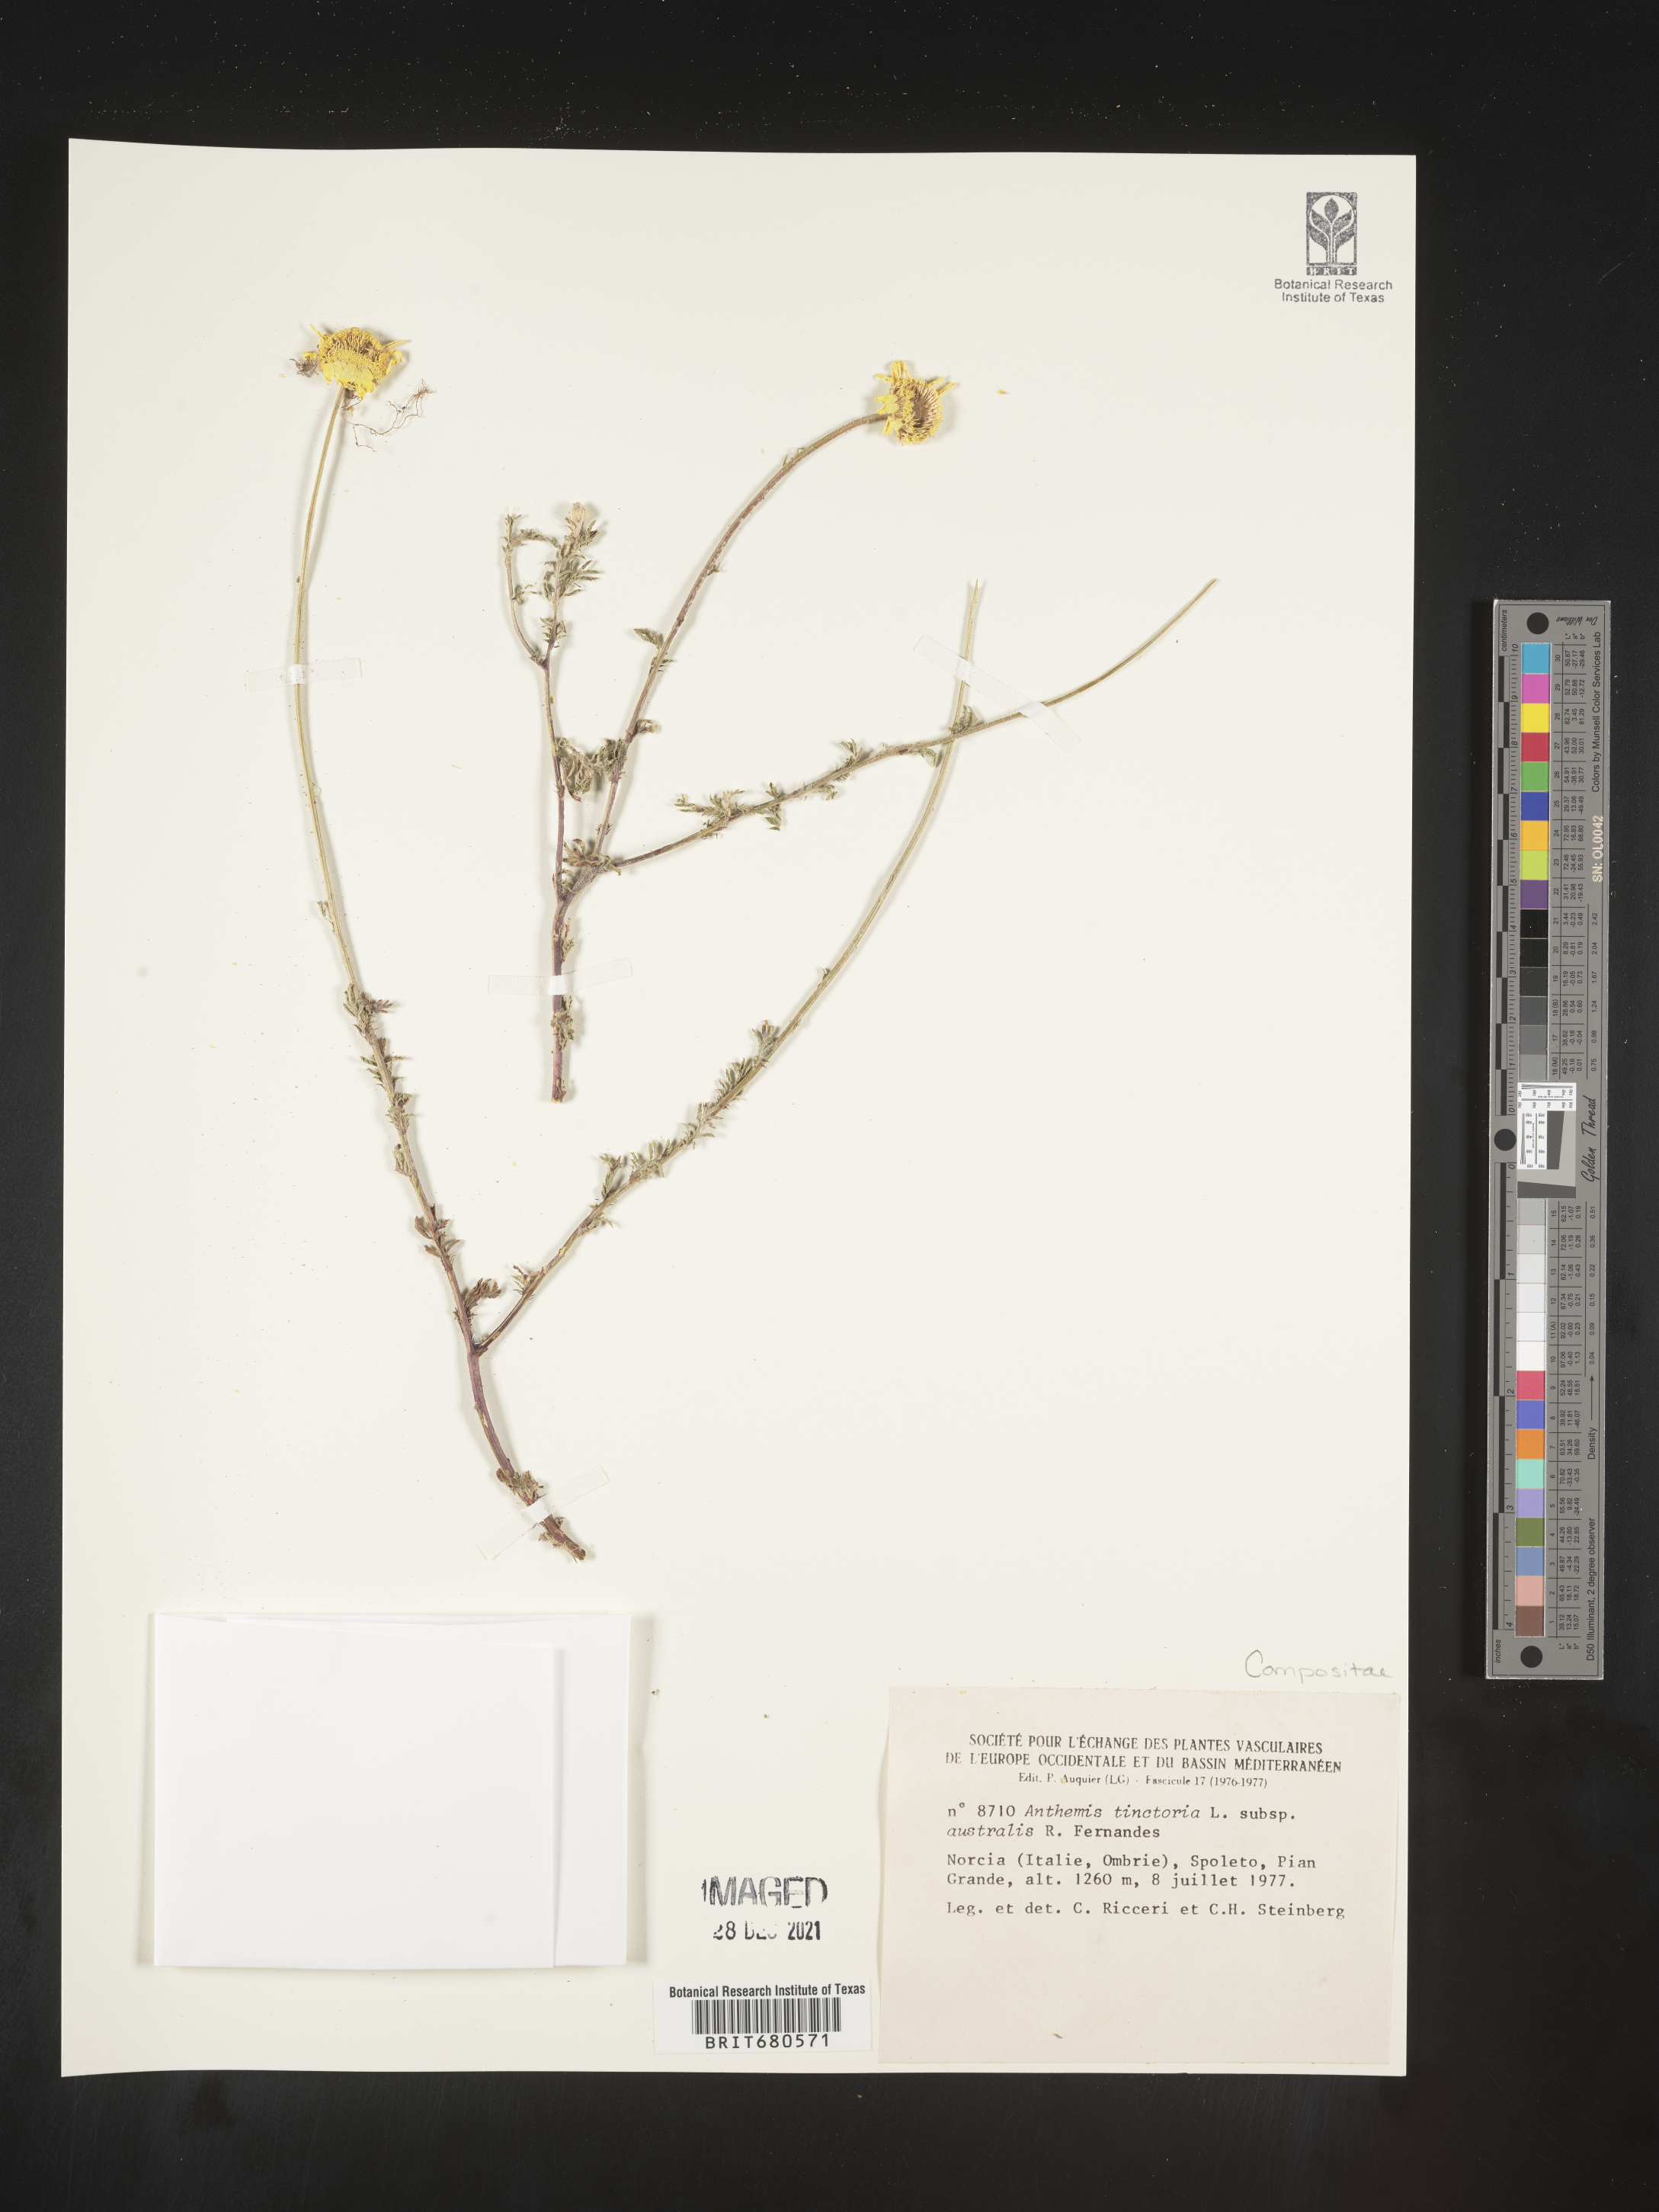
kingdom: Plantae
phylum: Tracheophyta
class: Magnoliopsida
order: Asterales
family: Asteraceae
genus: Anthemis
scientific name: Anthemis
